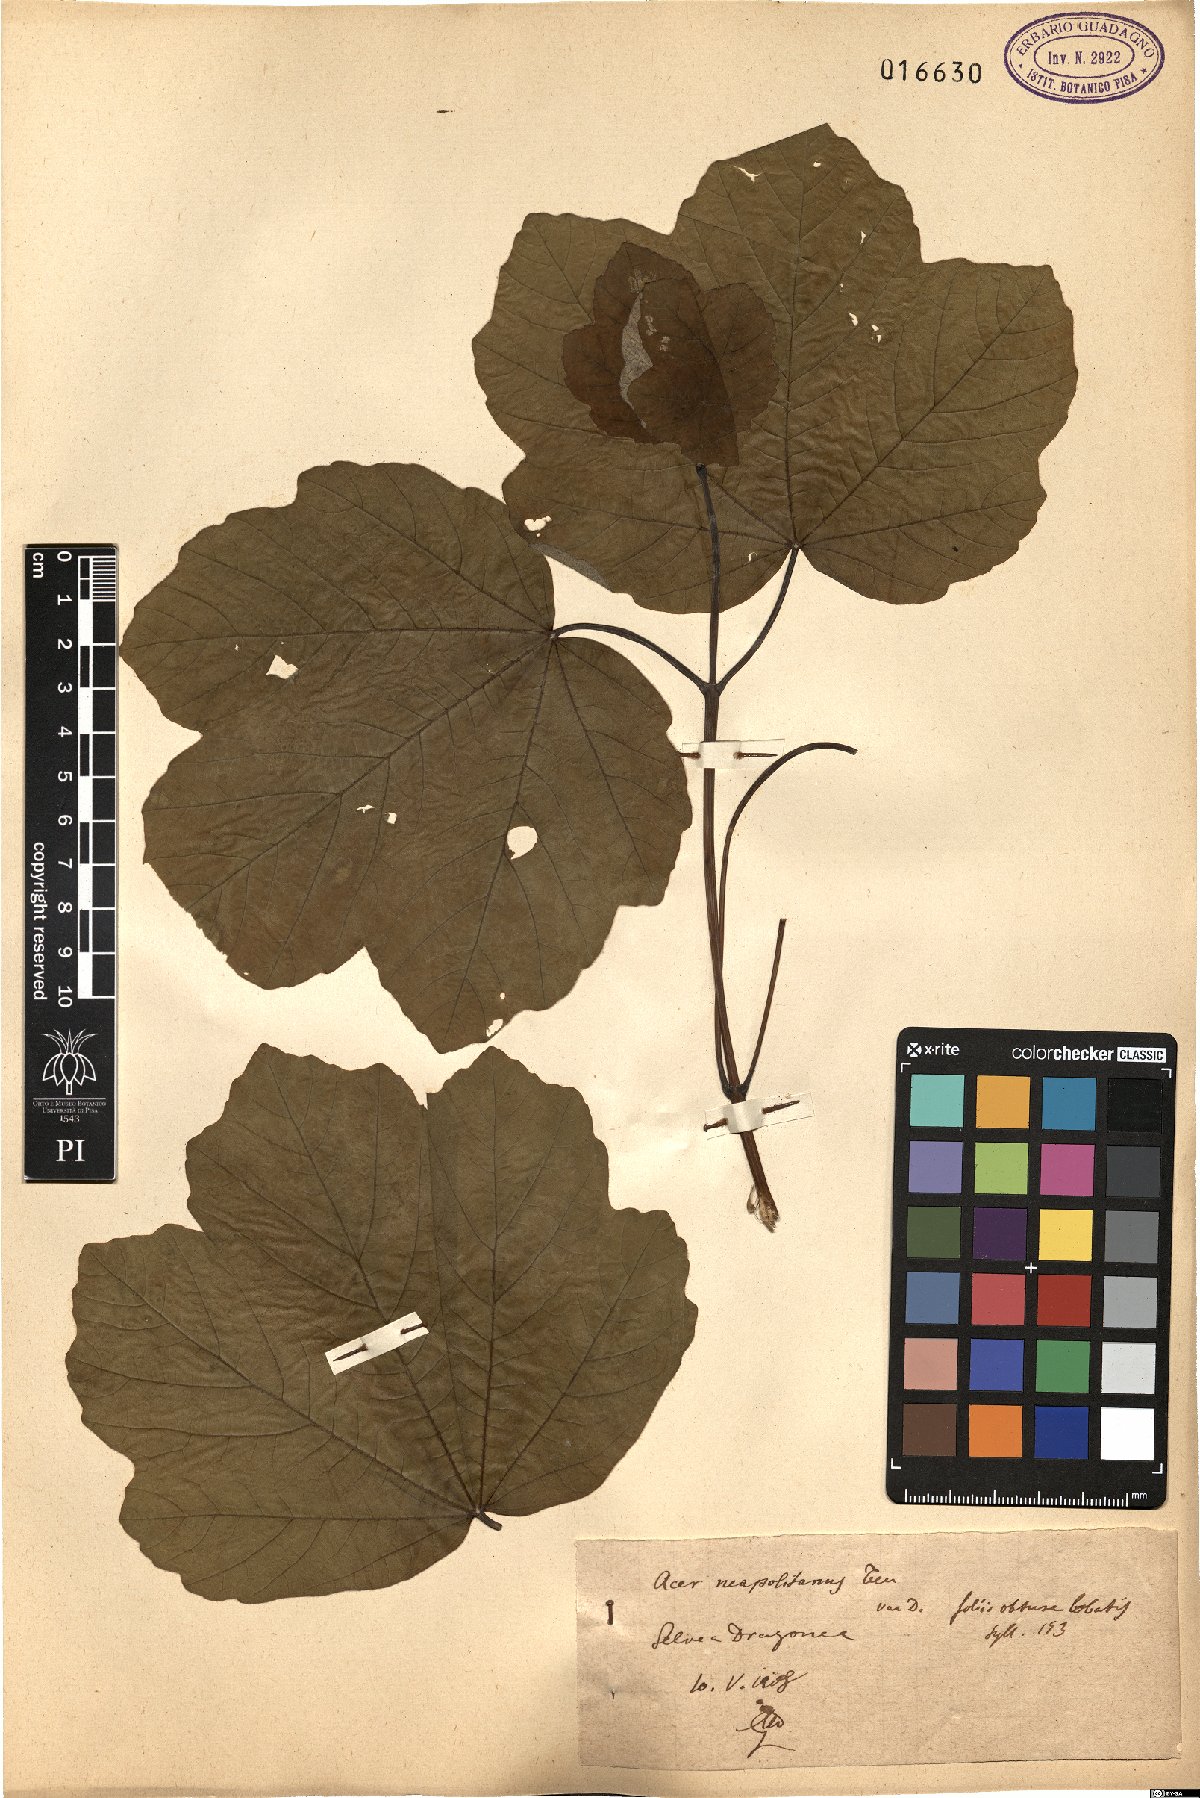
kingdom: Plantae
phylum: Tracheophyta
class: Magnoliopsida
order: Sapindales
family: Sapindaceae
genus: Acer
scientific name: Acer obtusatum
